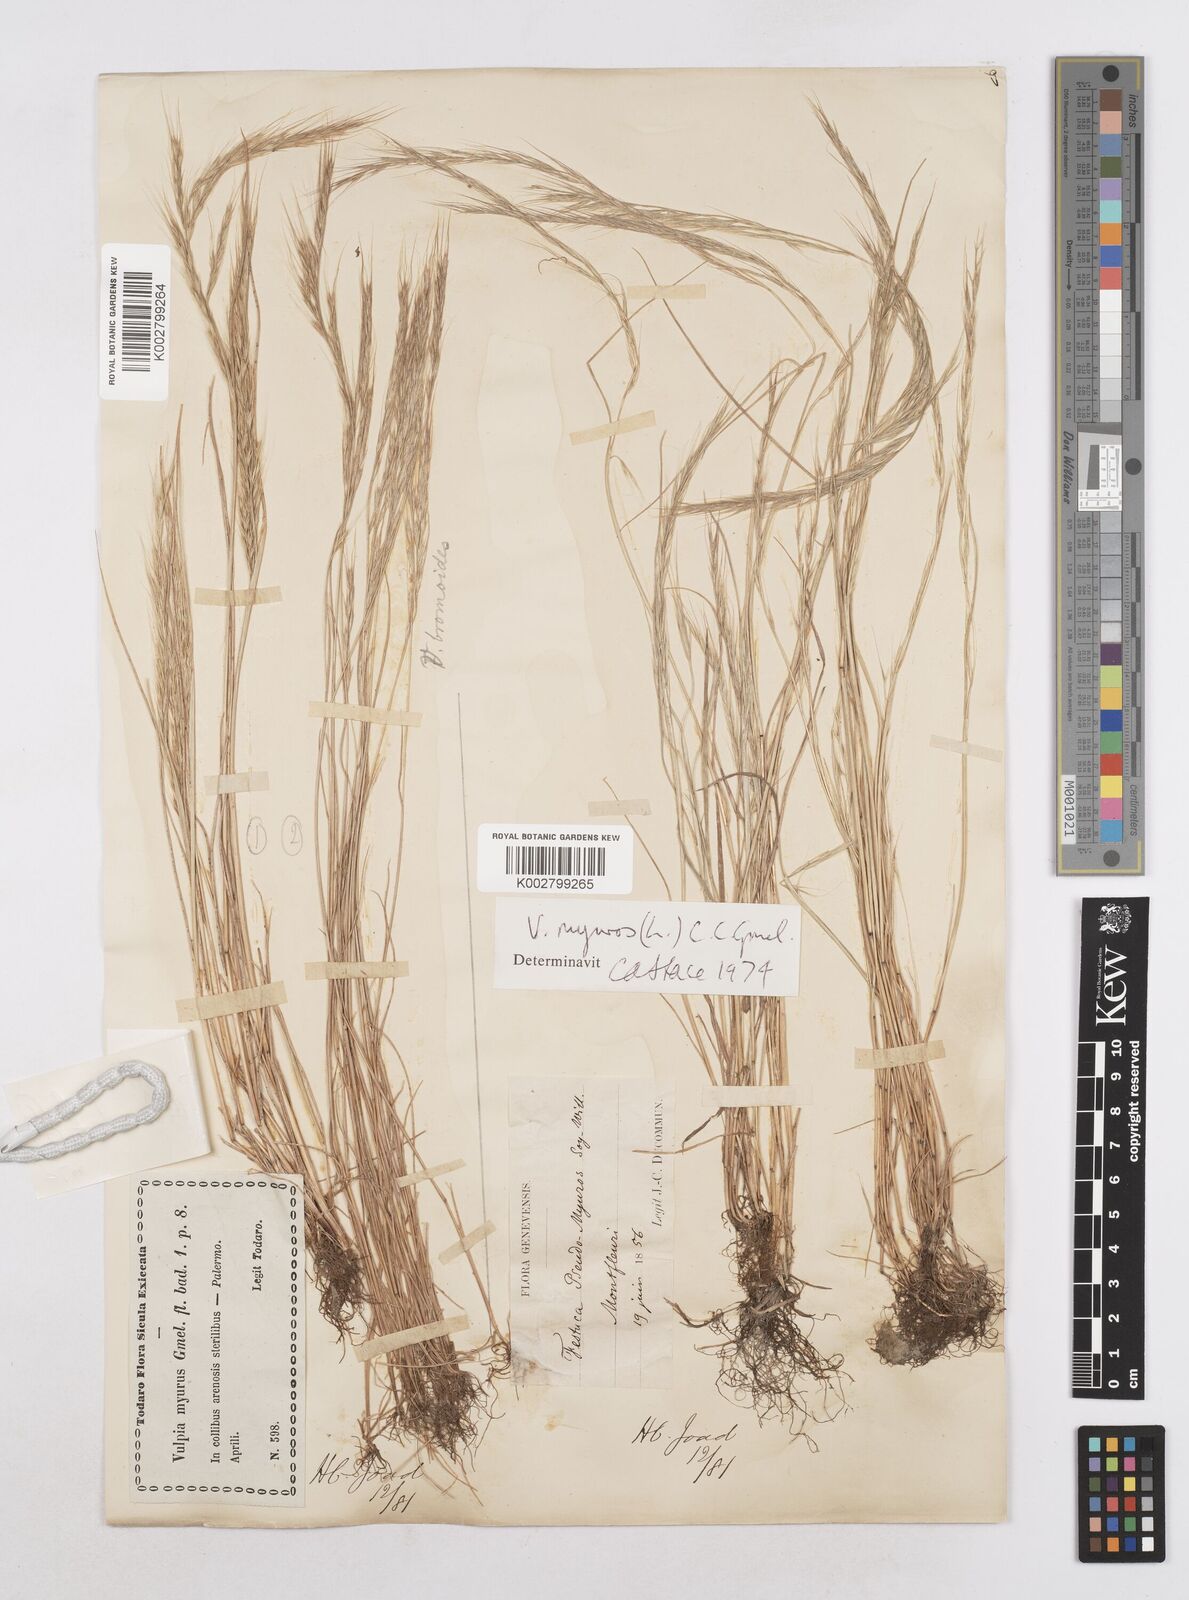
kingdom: Plantae
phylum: Tracheophyta
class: Liliopsida
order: Poales
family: Poaceae
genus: Festuca
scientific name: Festuca muralis
